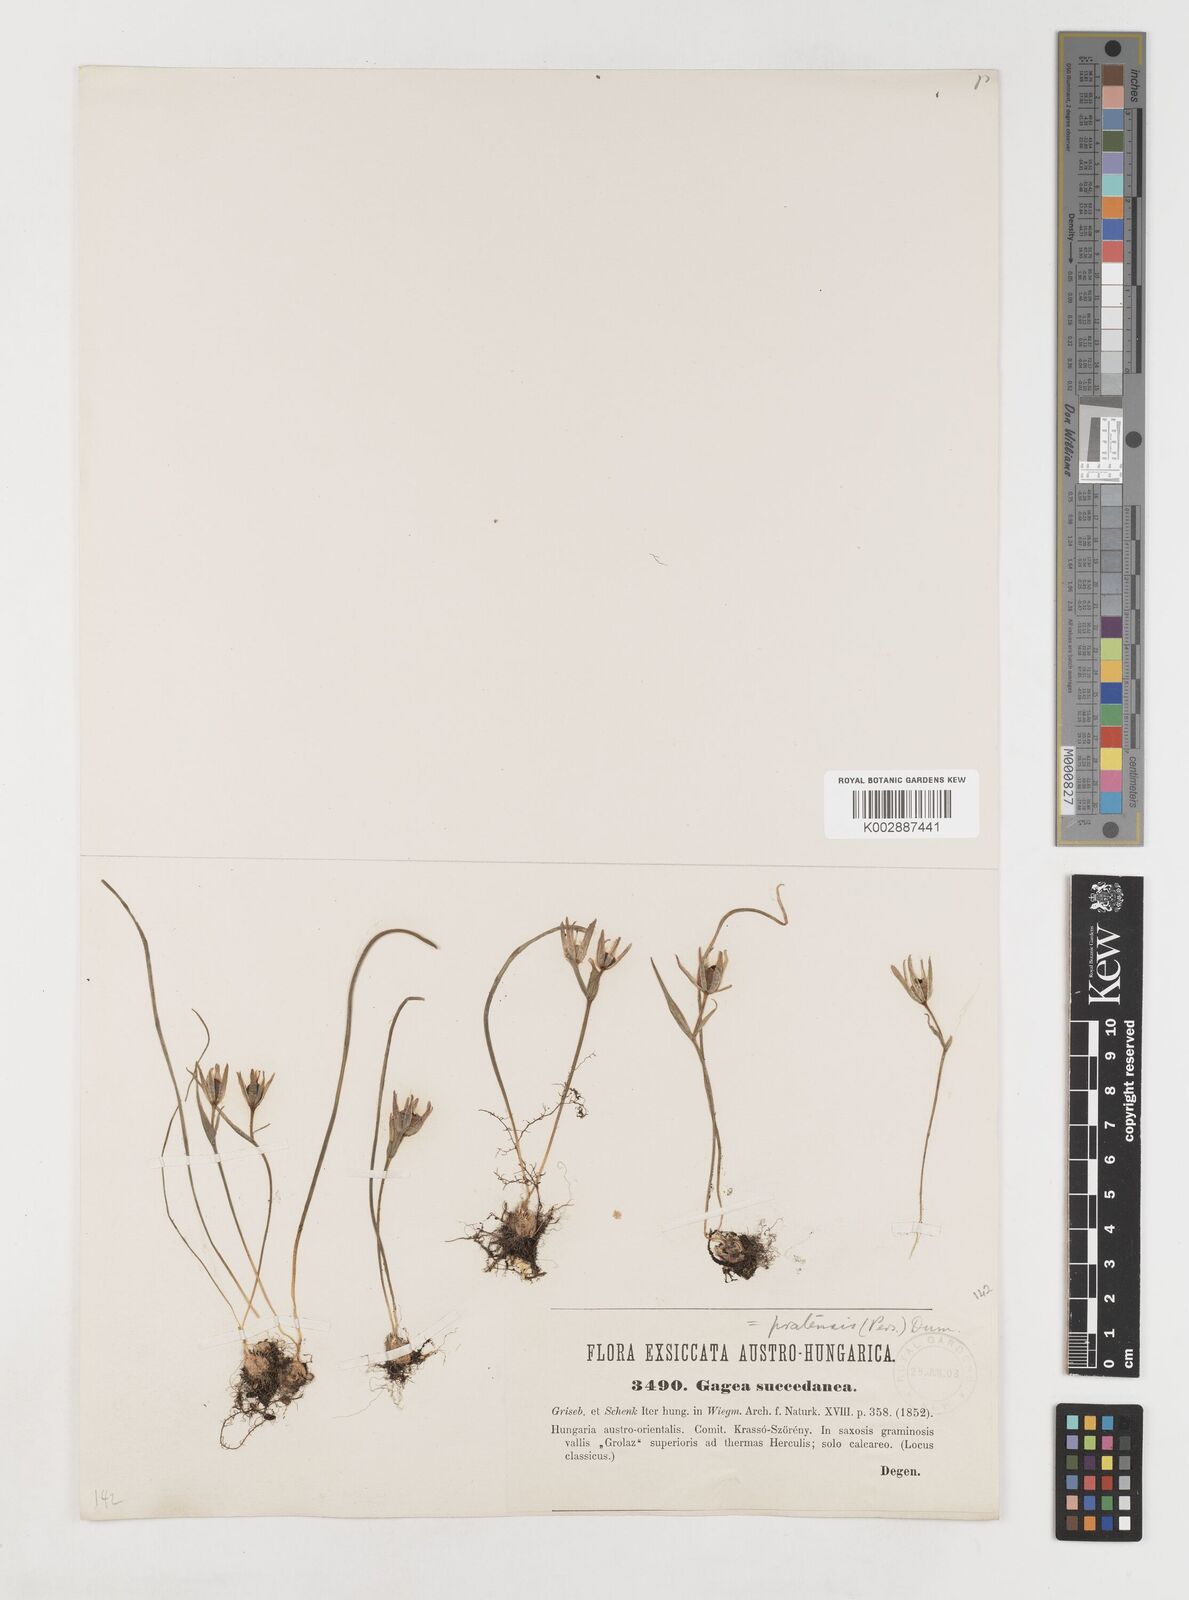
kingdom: Plantae
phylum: Tracheophyta
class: Liliopsida
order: Liliales
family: Liliaceae
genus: Gagea
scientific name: Gagea pratensis
